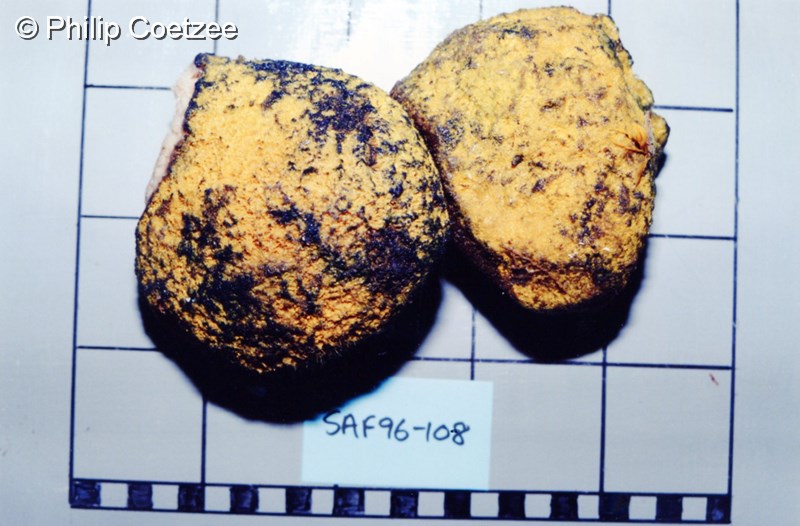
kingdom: Animalia
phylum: Porifera
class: Demospongiae
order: Verongiida
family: Pseudoceratinidae
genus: Pseudoceratina
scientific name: Pseudoceratina
